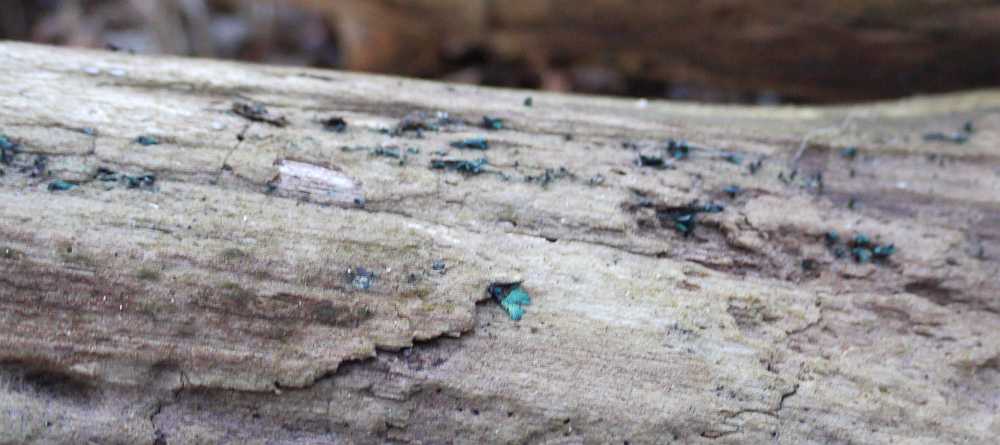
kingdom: Fungi
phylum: Ascomycota
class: Leotiomycetes
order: Helotiales
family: Chlorociboriaceae
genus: Chlorociboria
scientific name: Chlorociboria aeruginascens
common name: almindelig grønskive
